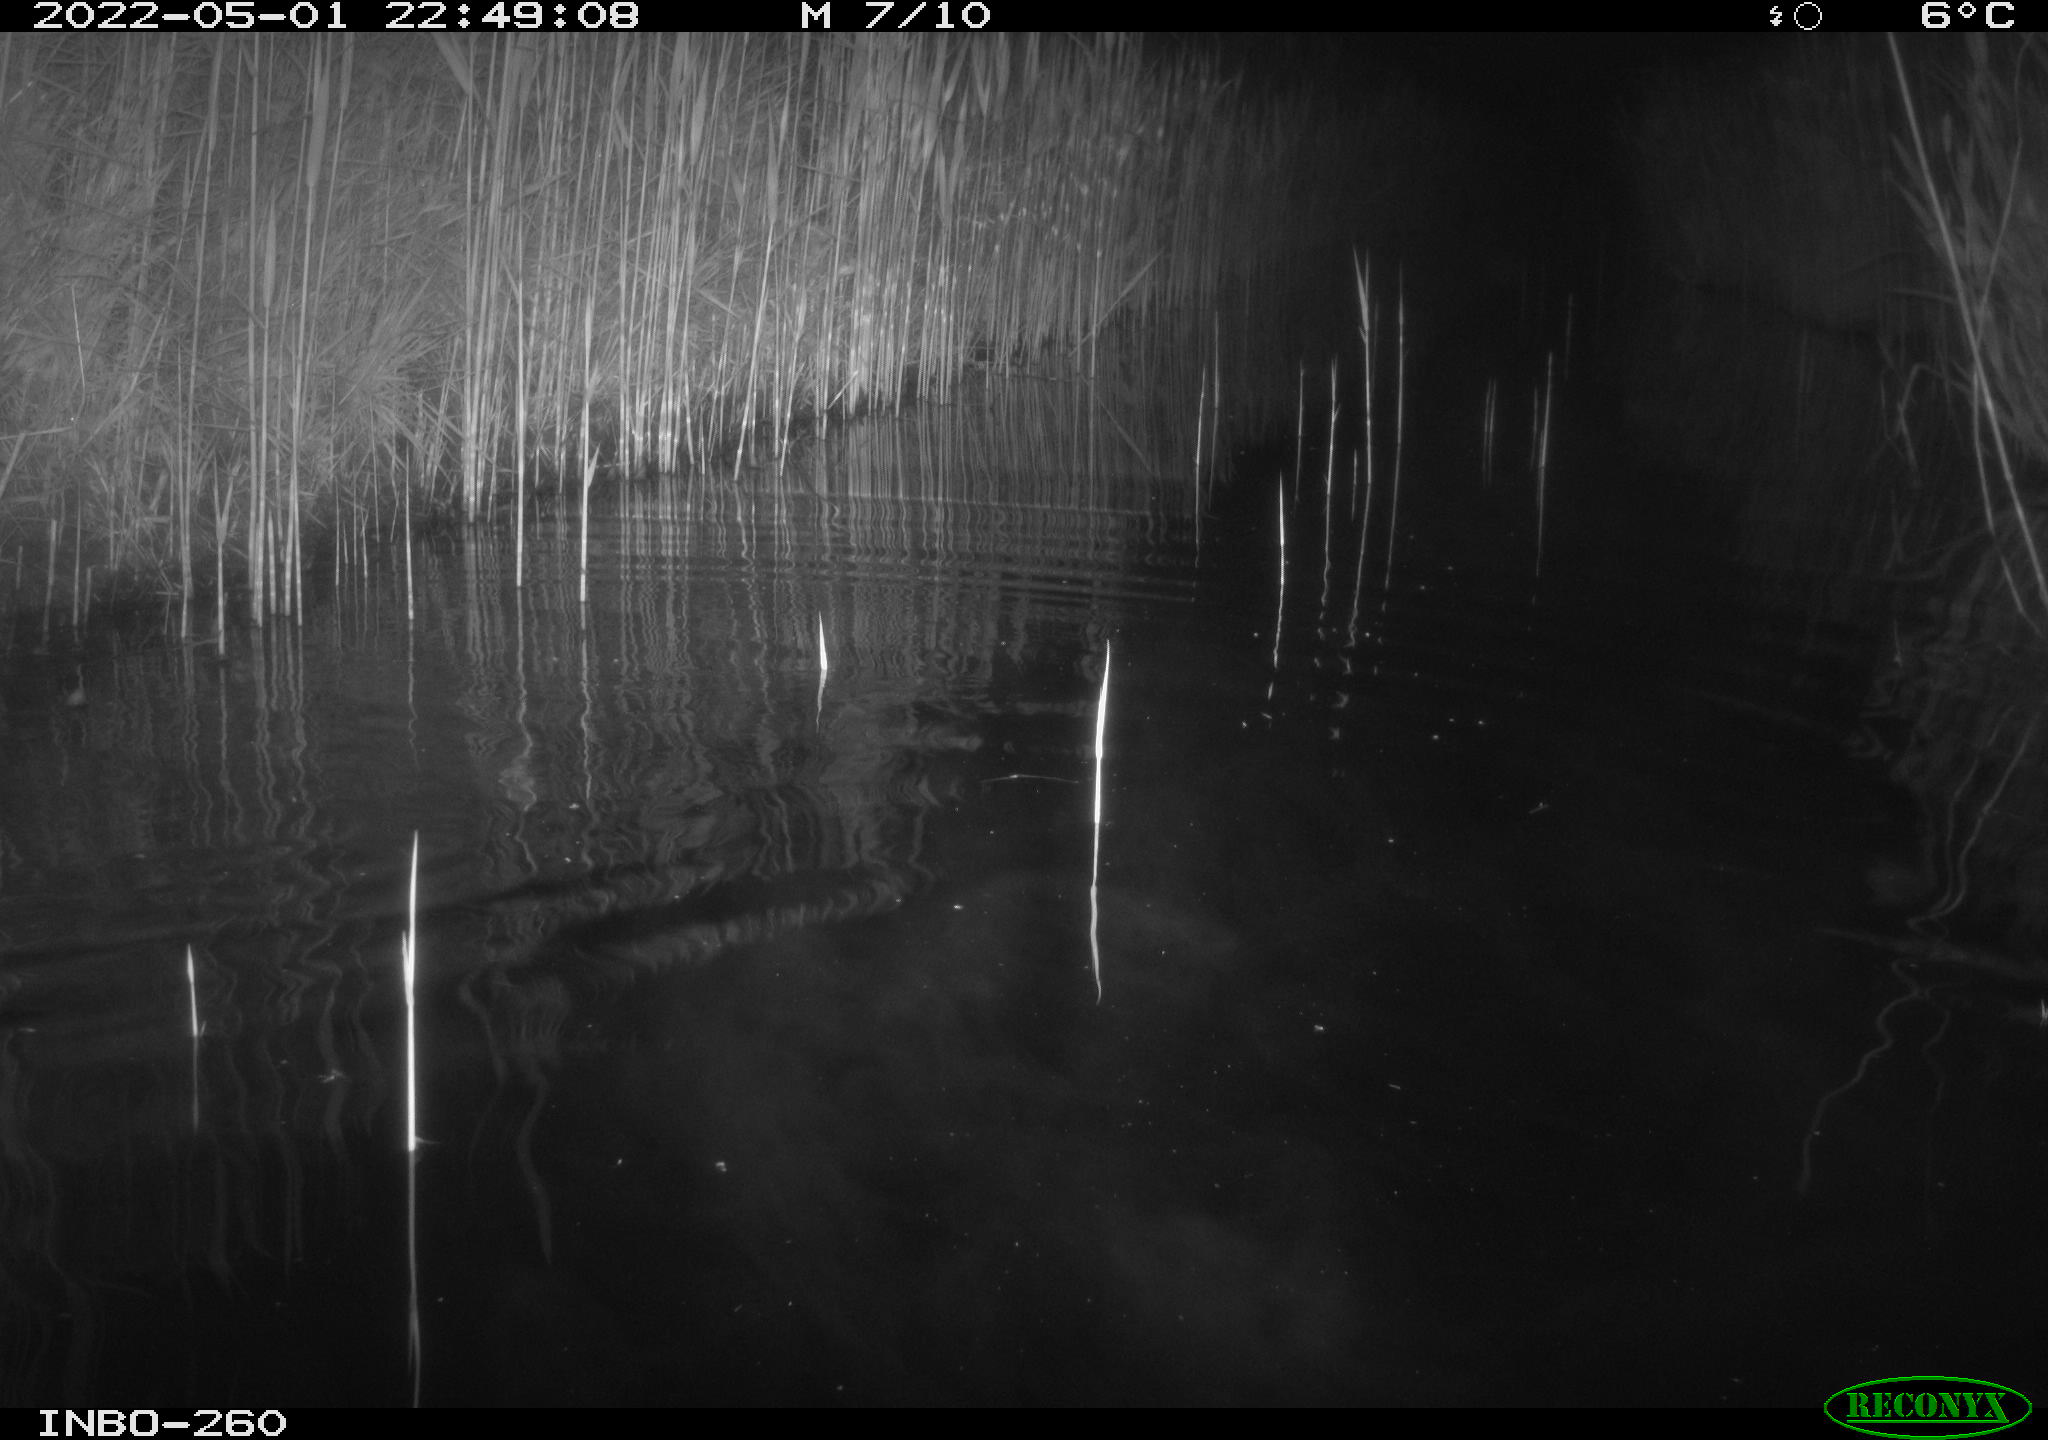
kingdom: Animalia
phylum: Chordata
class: Mammalia
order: Rodentia
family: Cricetidae
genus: Ondatra
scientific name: Ondatra zibethicus
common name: Muskrat
